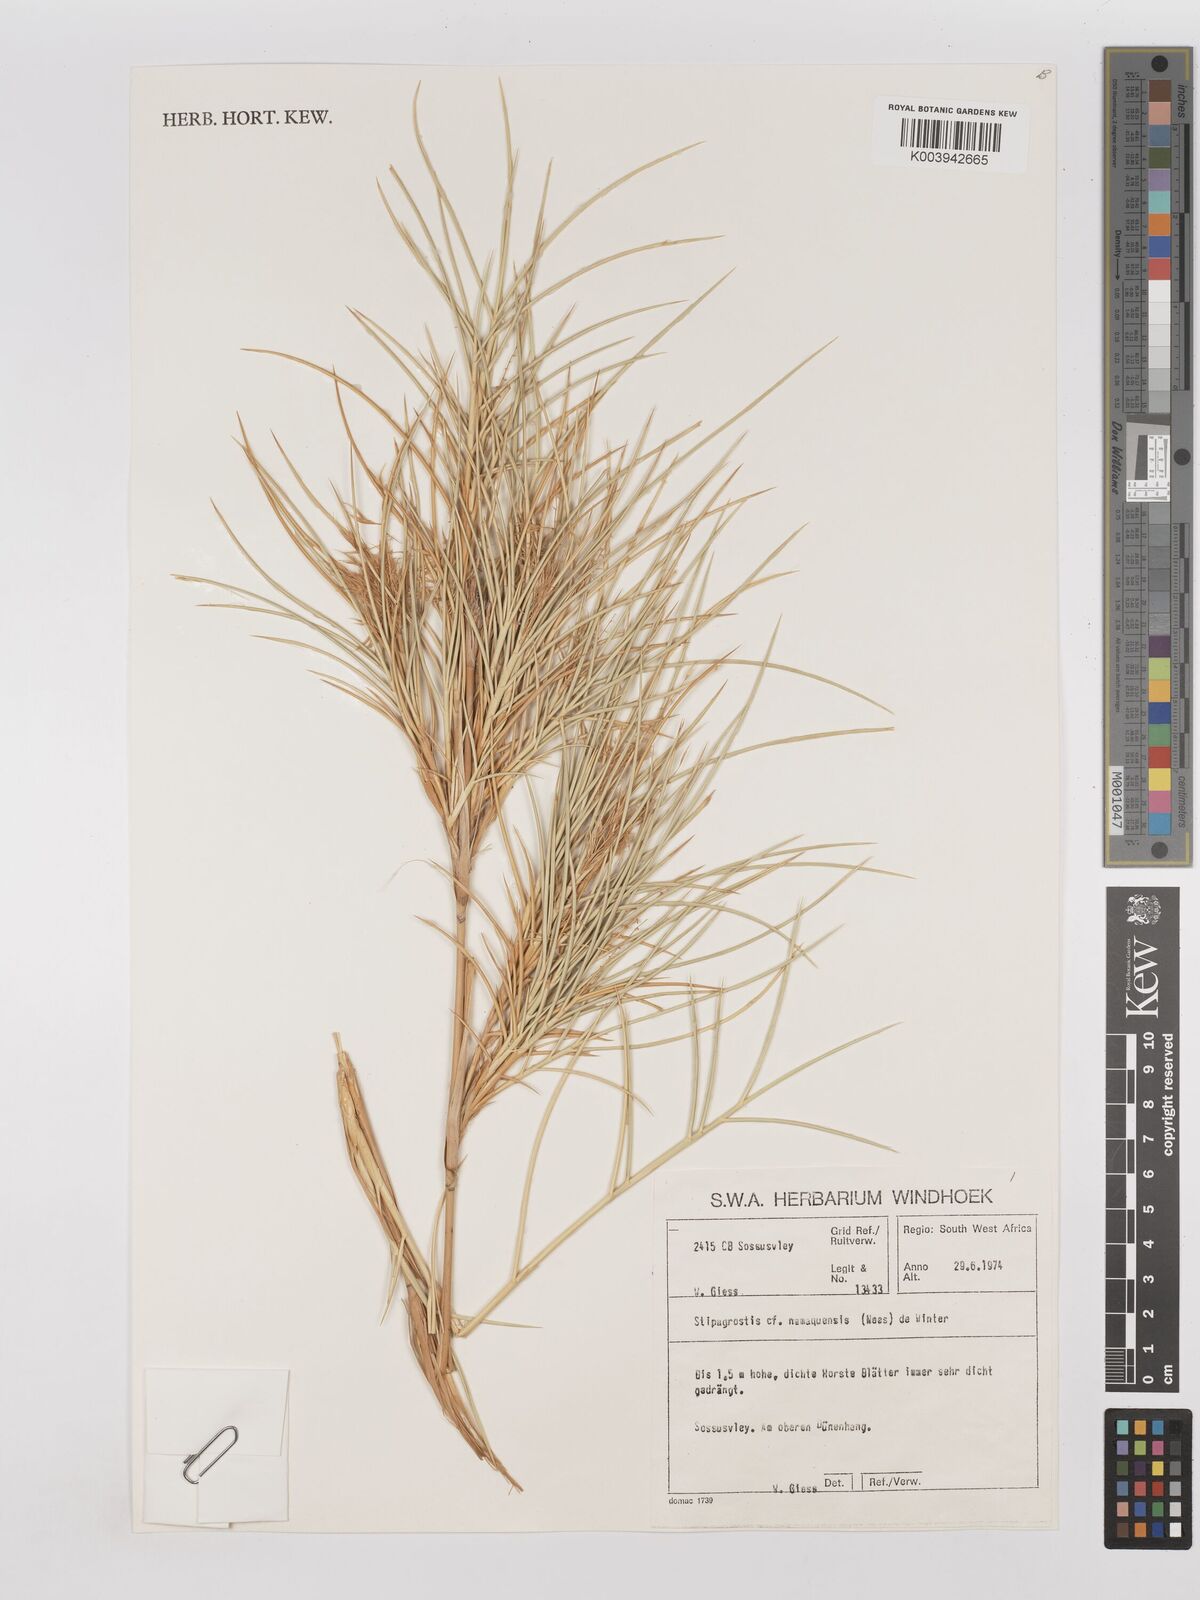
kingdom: Plantae
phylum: Tracheophyta
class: Liliopsida
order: Poales
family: Poaceae
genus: Stipagrostis
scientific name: Stipagrostis
